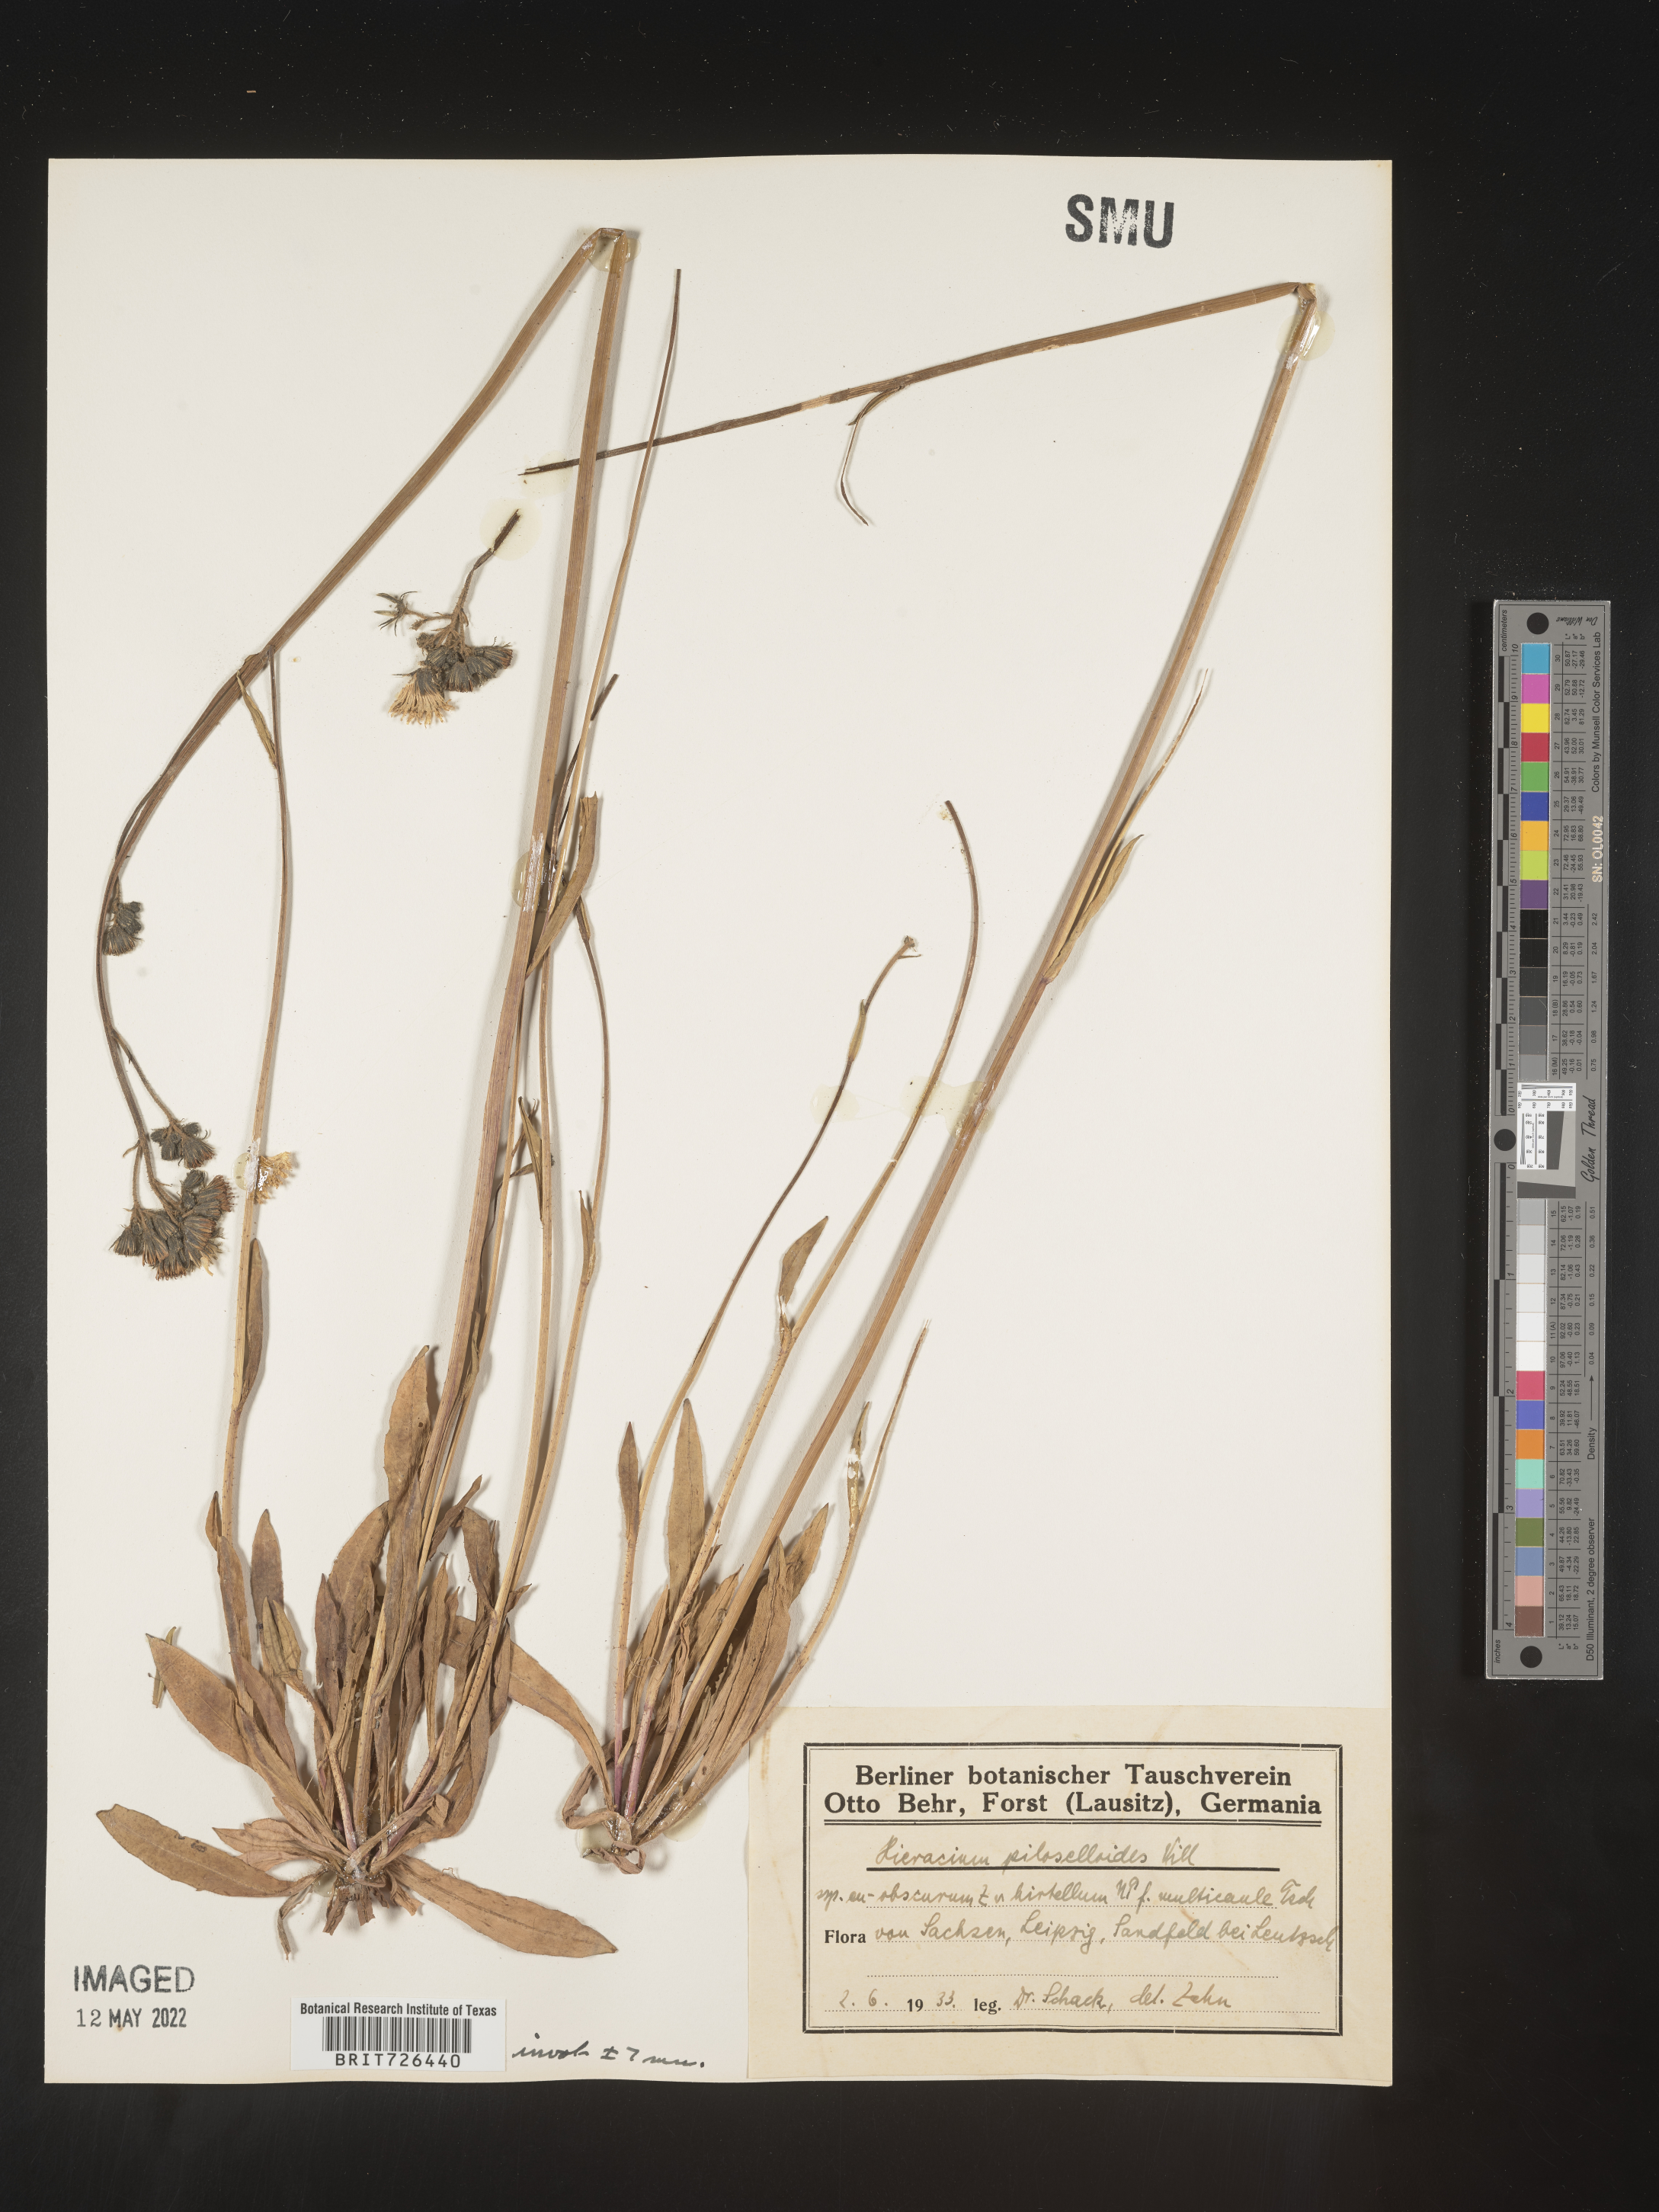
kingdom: Plantae
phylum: Tracheophyta
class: Magnoliopsida
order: Asterales
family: Asteraceae
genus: Hieracium
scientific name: Hieracium
